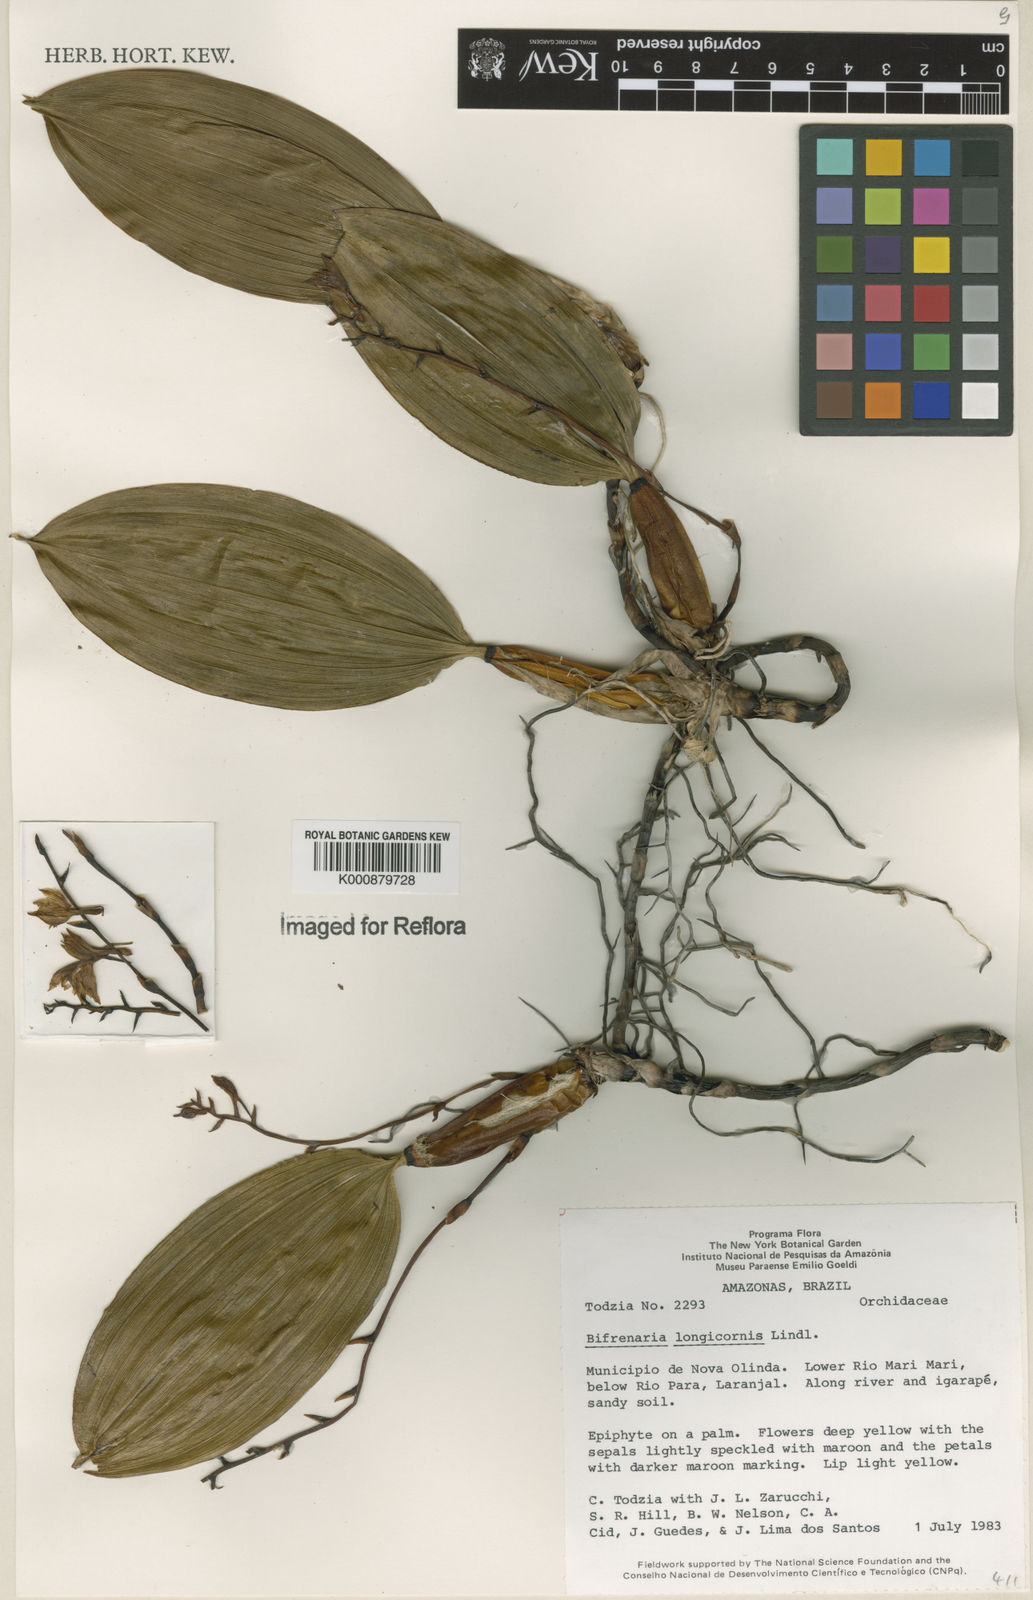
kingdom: Plantae
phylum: Tracheophyta
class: Liliopsida
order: Asparagales
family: Orchidaceae
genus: Bifrenaria
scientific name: Bifrenaria longicornis
